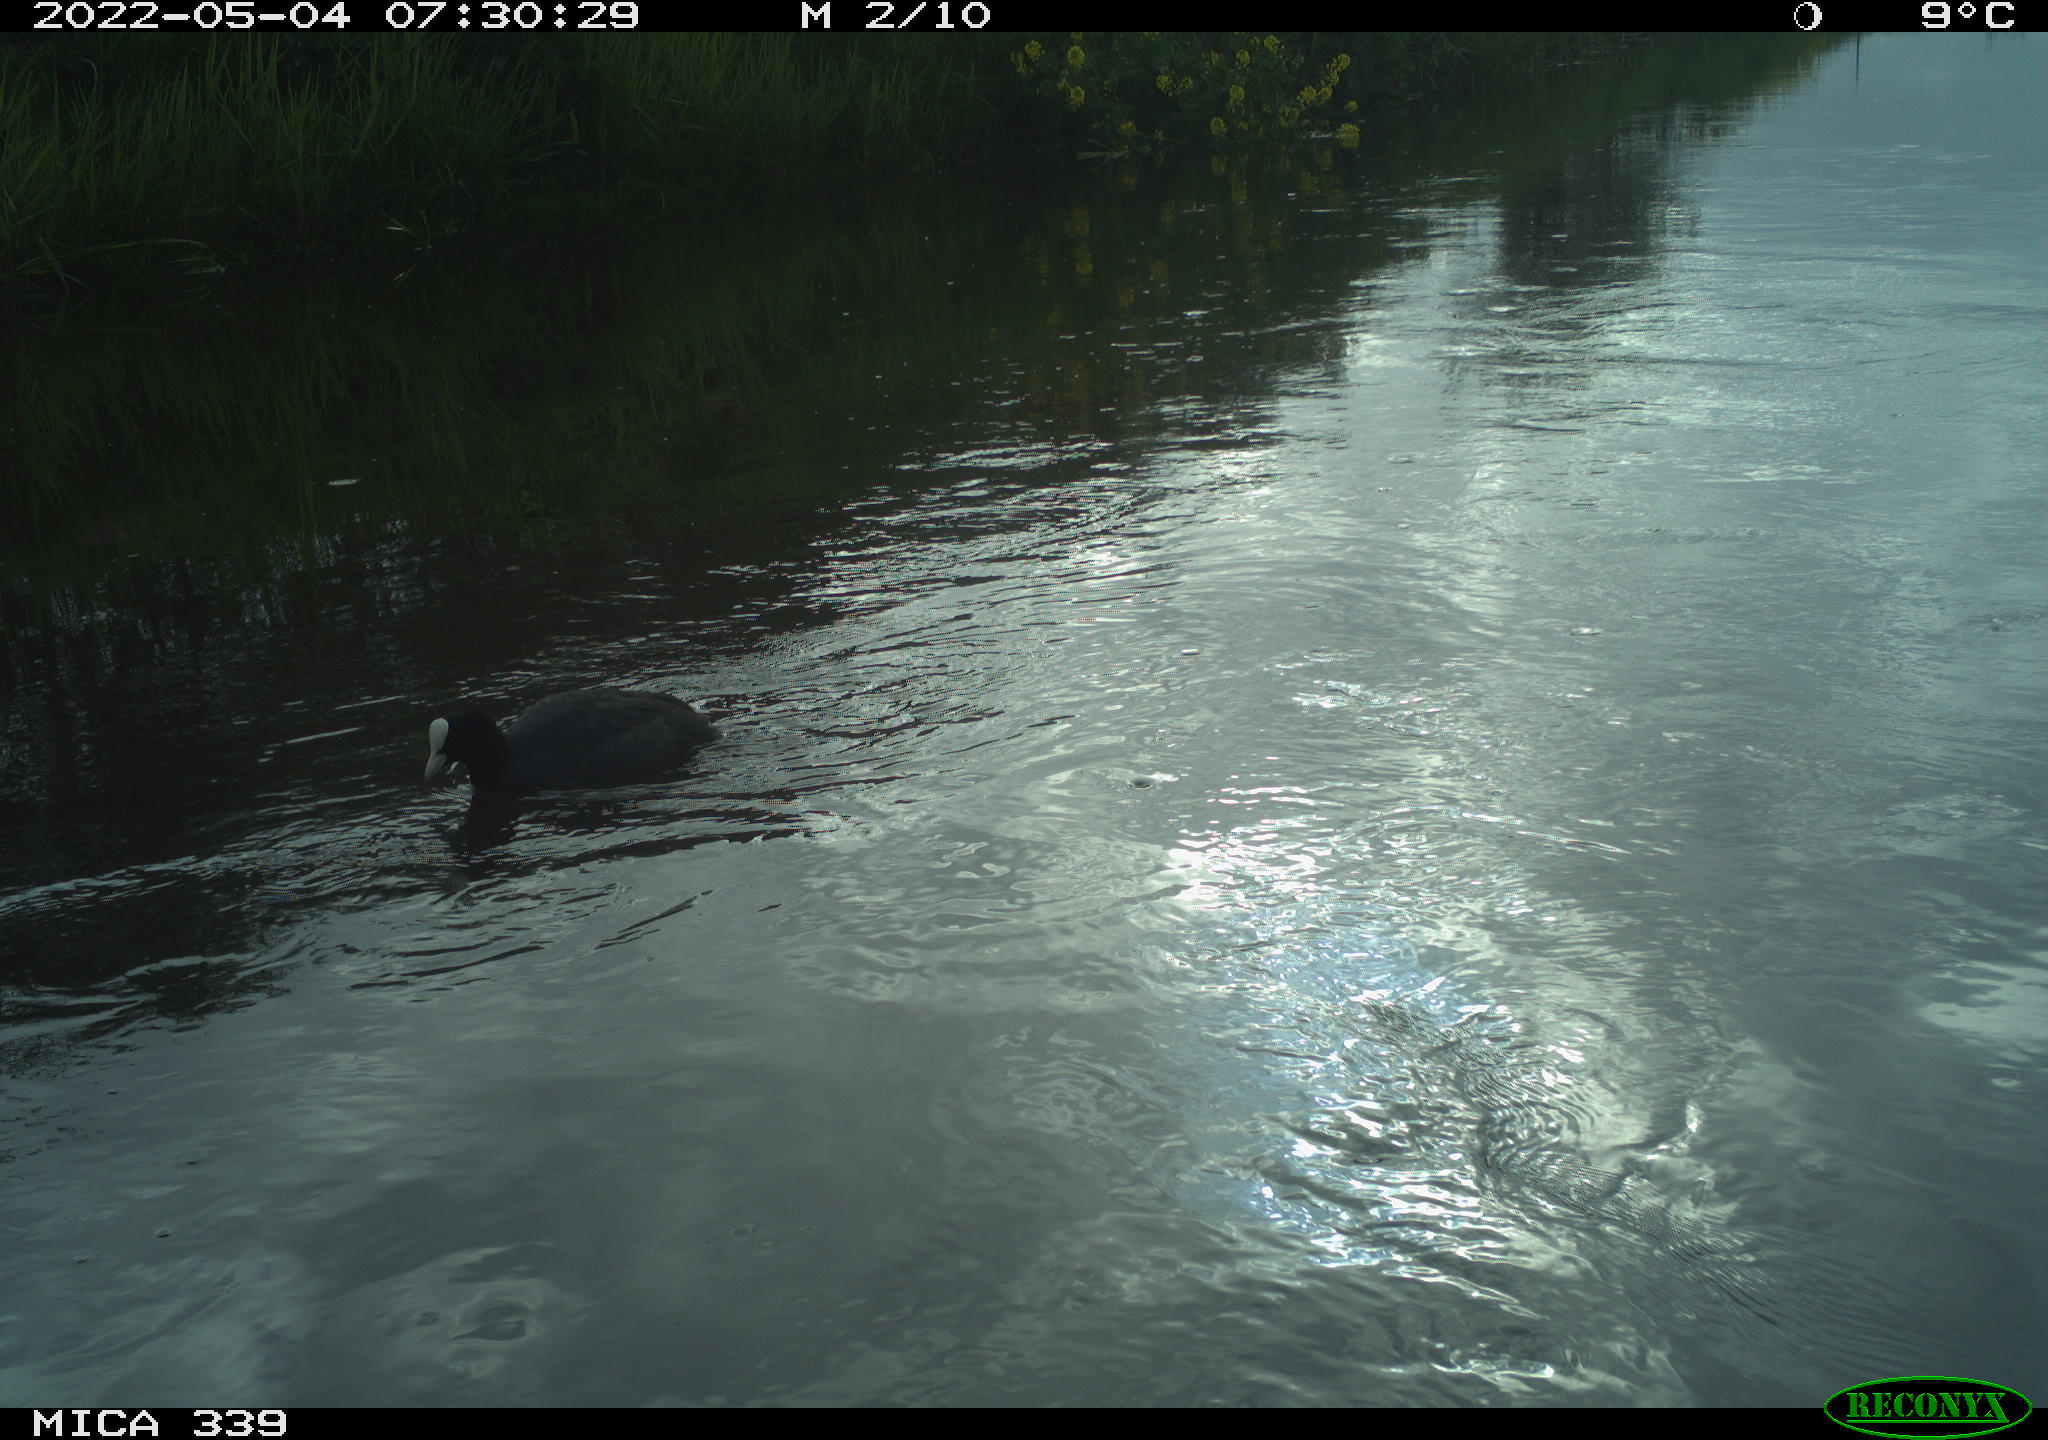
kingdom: Animalia
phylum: Chordata
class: Aves
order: Gruiformes
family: Rallidae
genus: Fulica
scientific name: Fulica atra
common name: Eurasian coot
